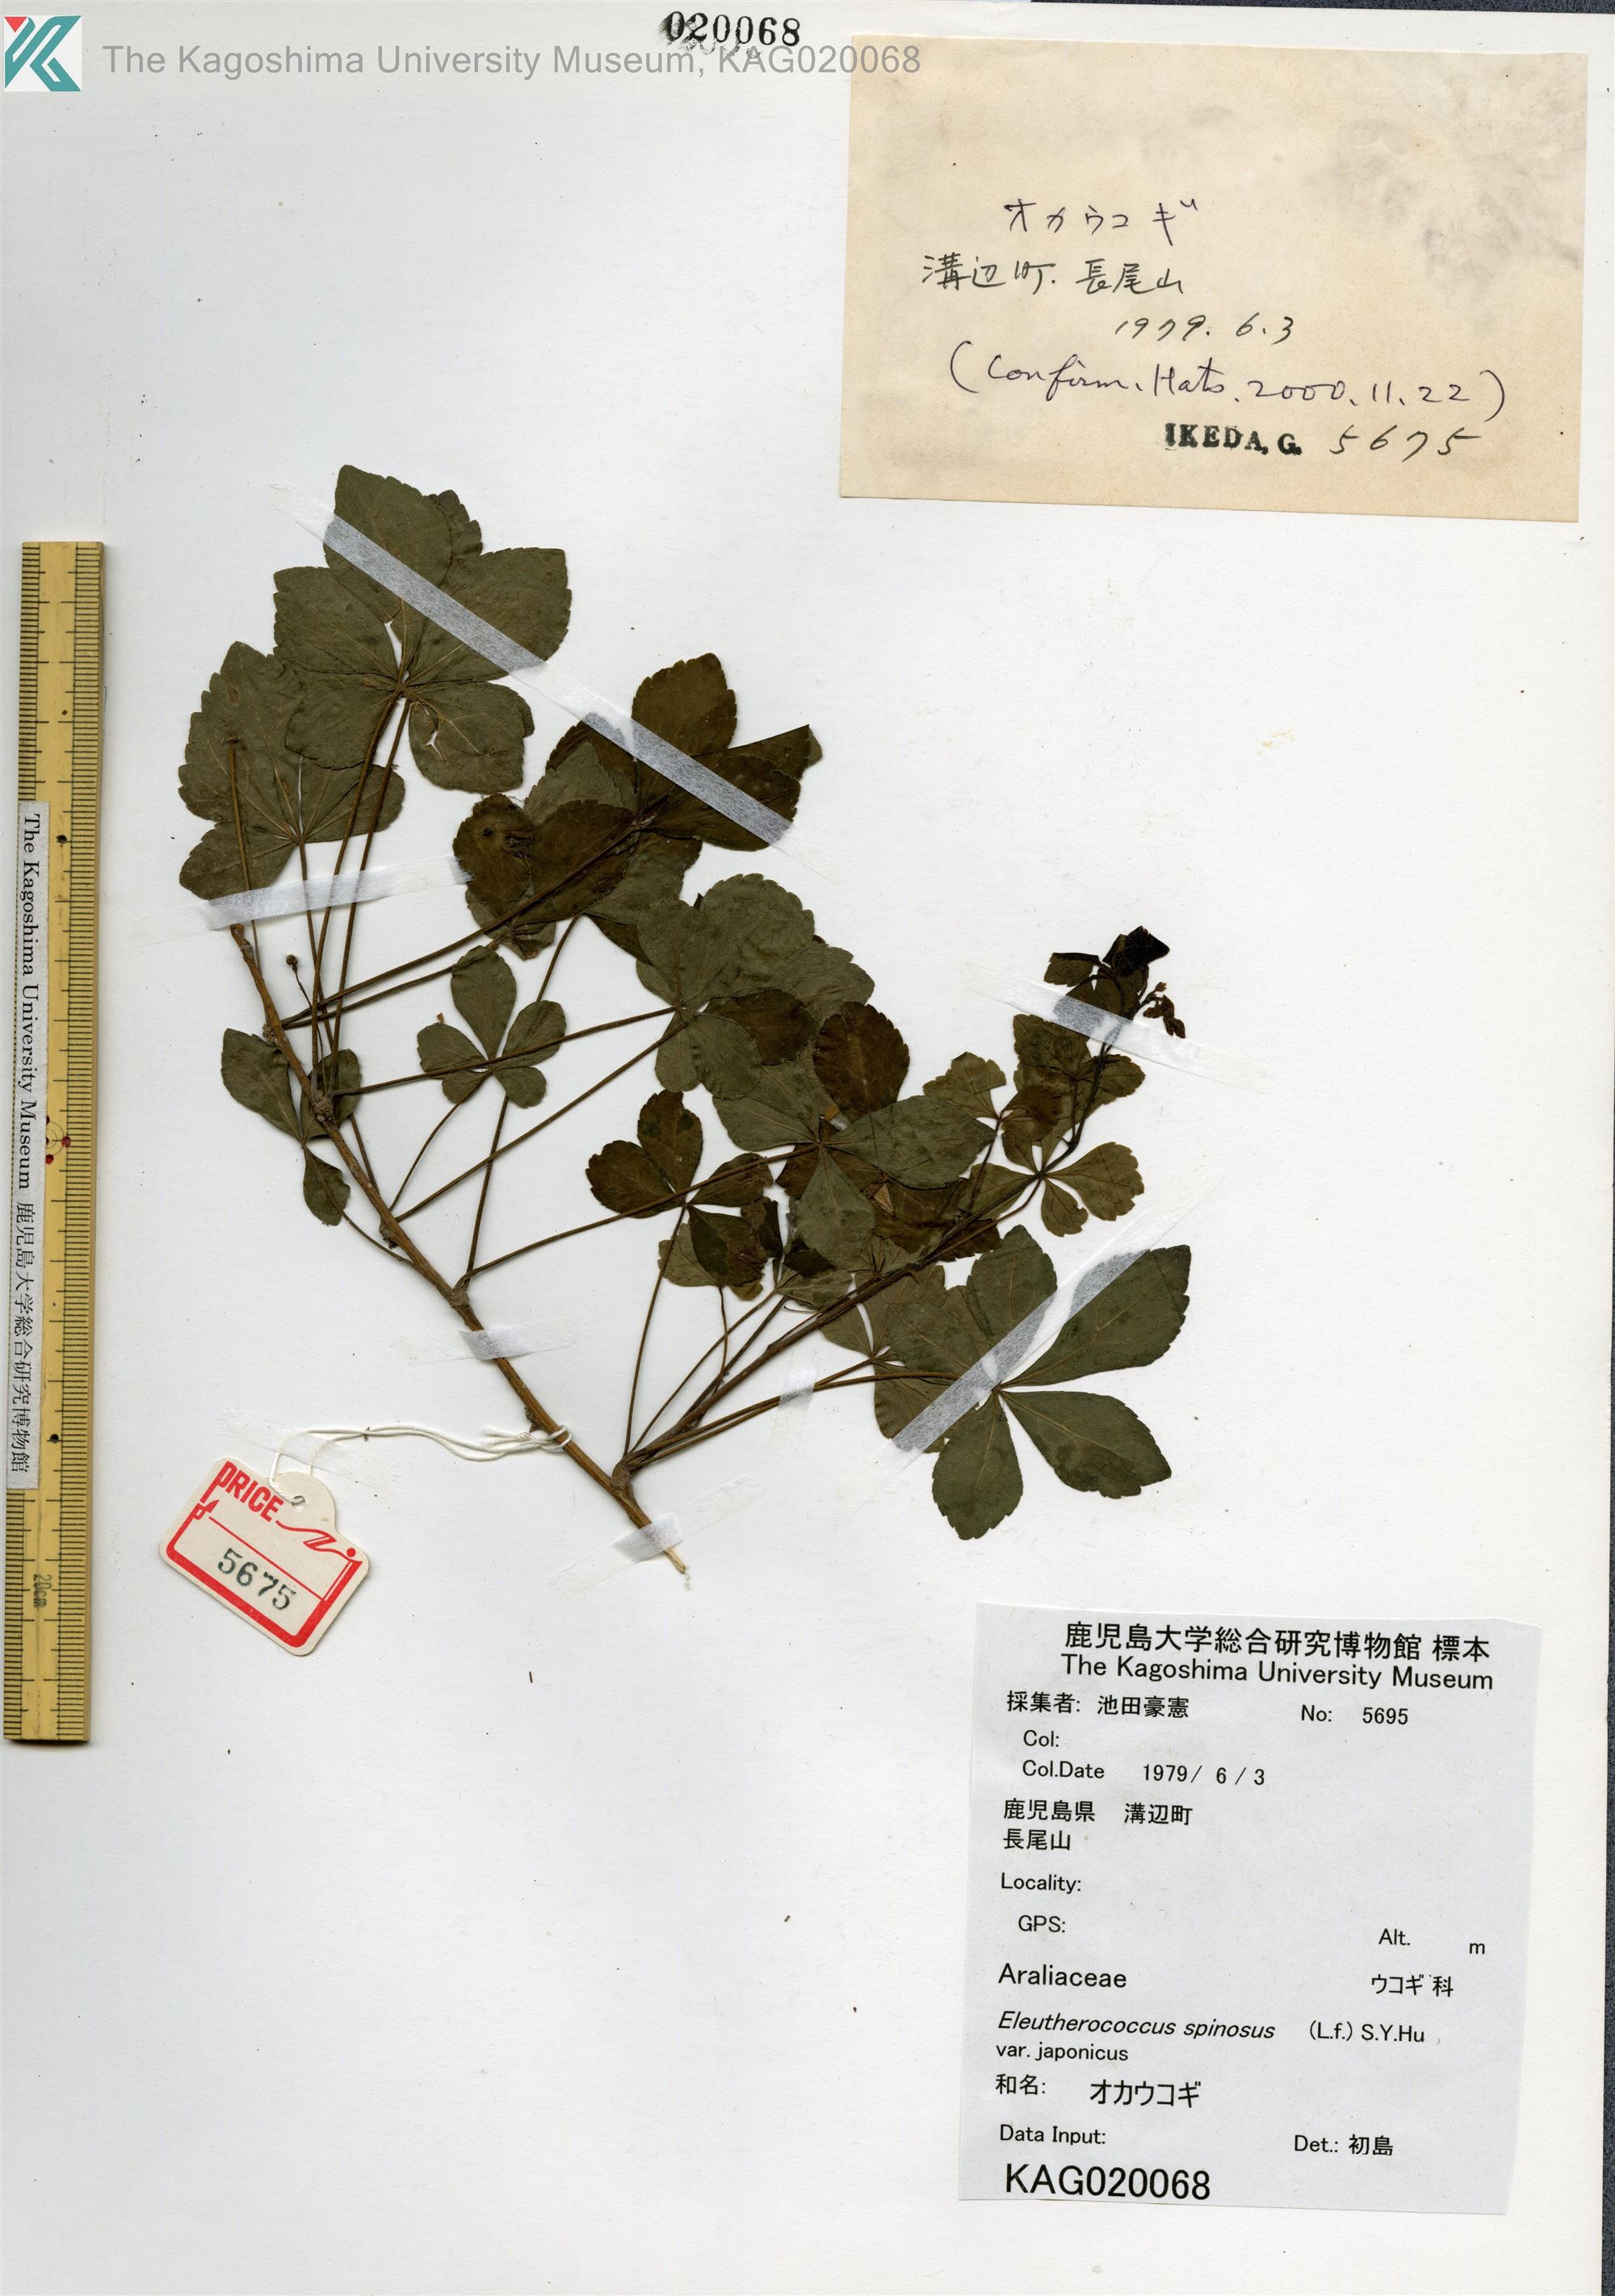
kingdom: Plantae
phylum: Tracheophyta
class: Magnoliopsida
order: Apiales
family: Araliaceae
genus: Eleutherococcus
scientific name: Eleutherococcus japonicus
